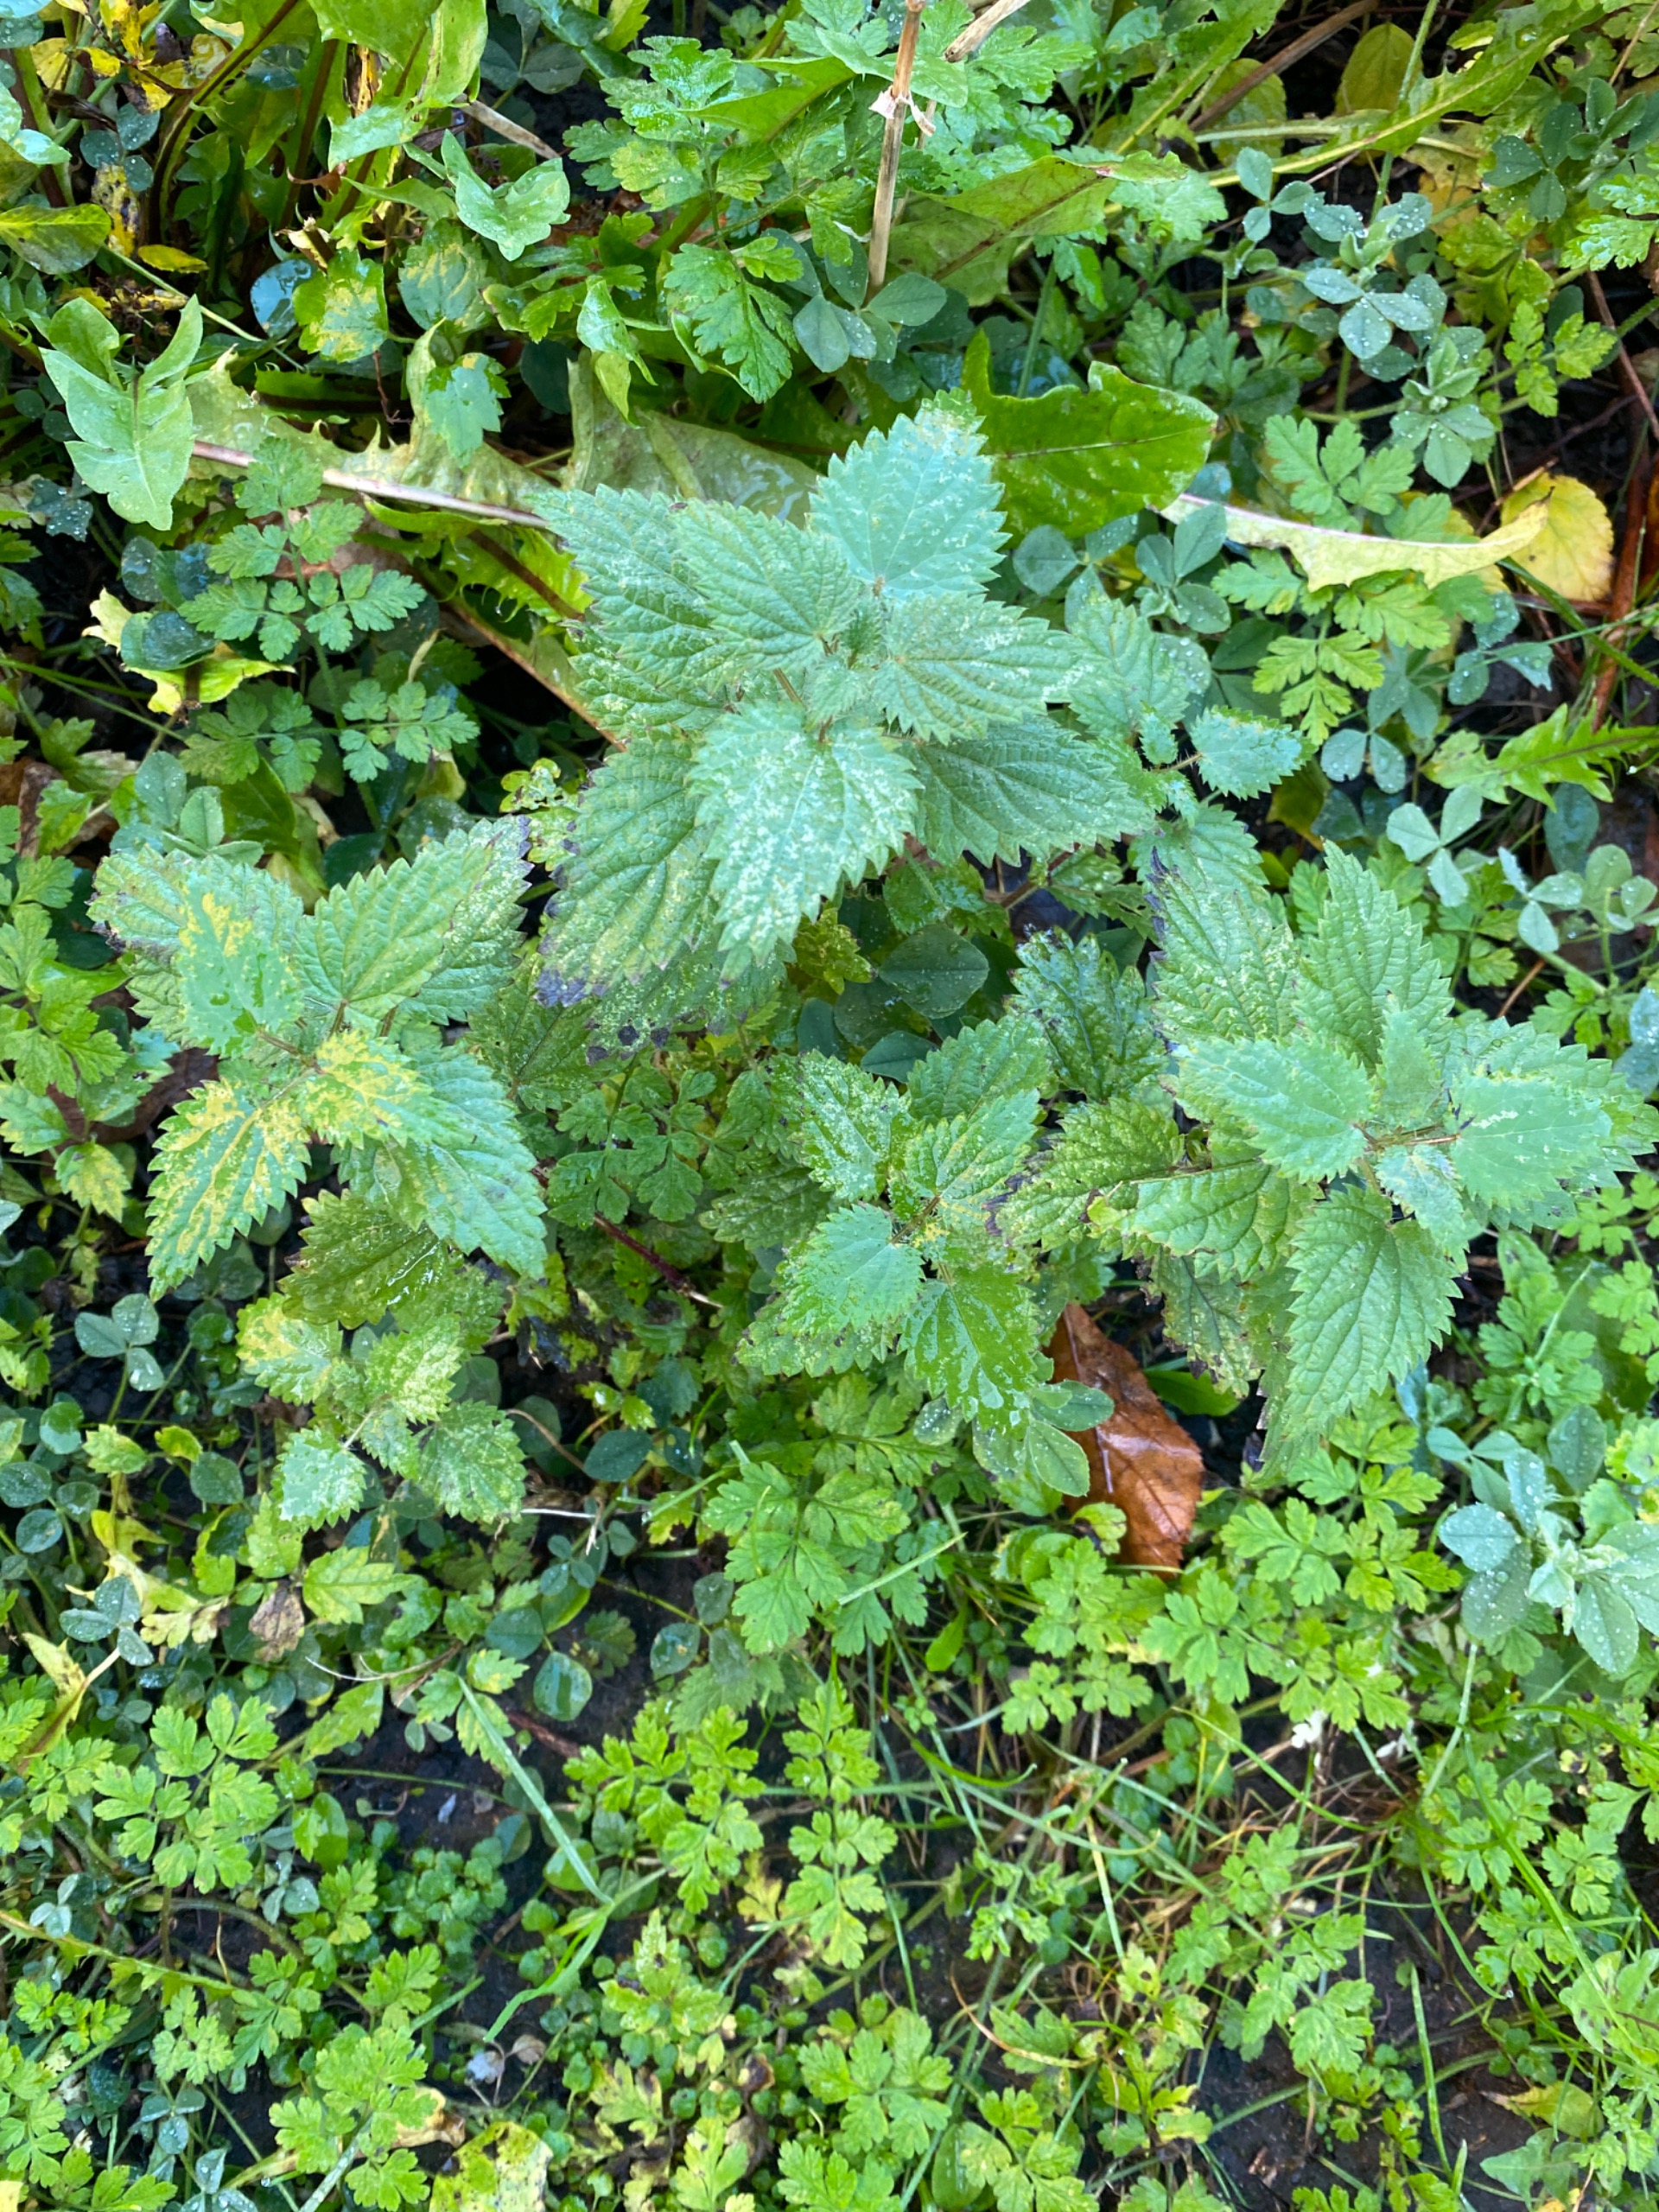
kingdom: Plantae
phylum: Tracheophyta
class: Magnoliopsida
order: Rosales
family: Urticaceae
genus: Urtica
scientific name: Urtica dioica
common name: Stor nælde
